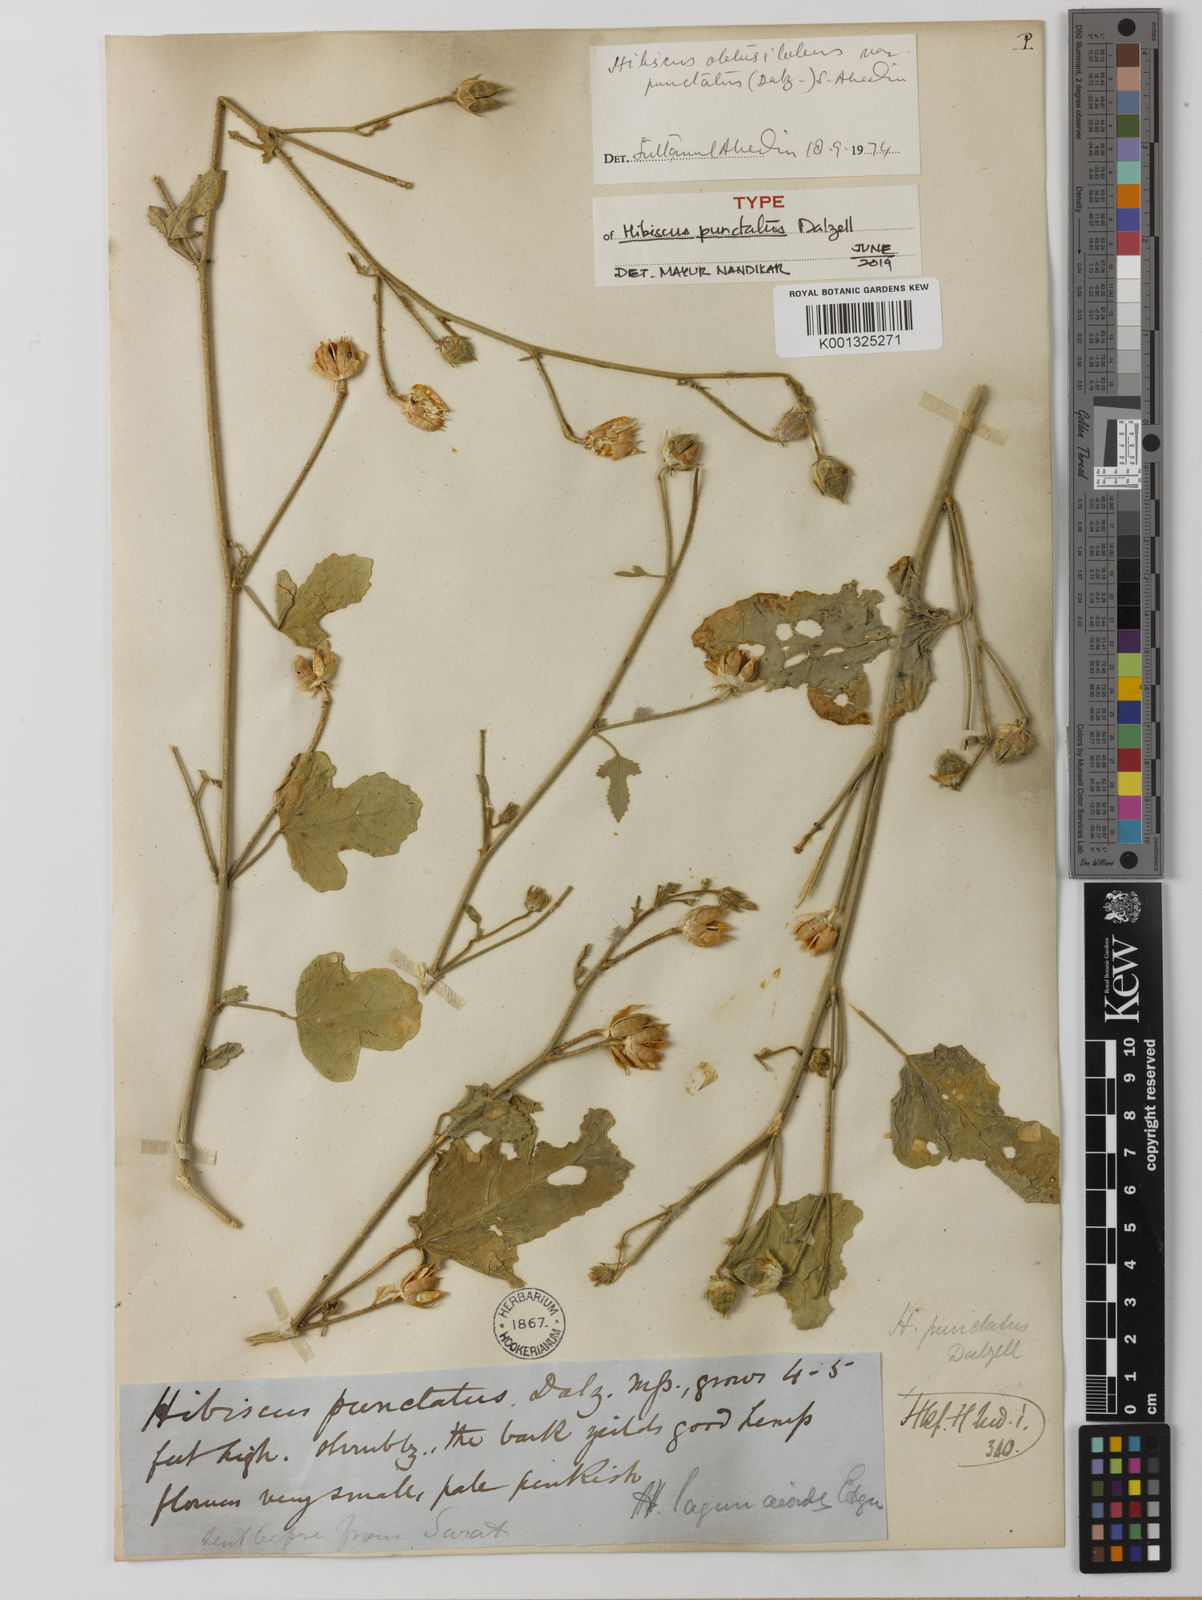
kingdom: Plantae
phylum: Tracheophyta
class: Magnoliopsida
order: Malvales
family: Malvaceae
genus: Hibiscus
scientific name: Hibiscus obtusilobus
